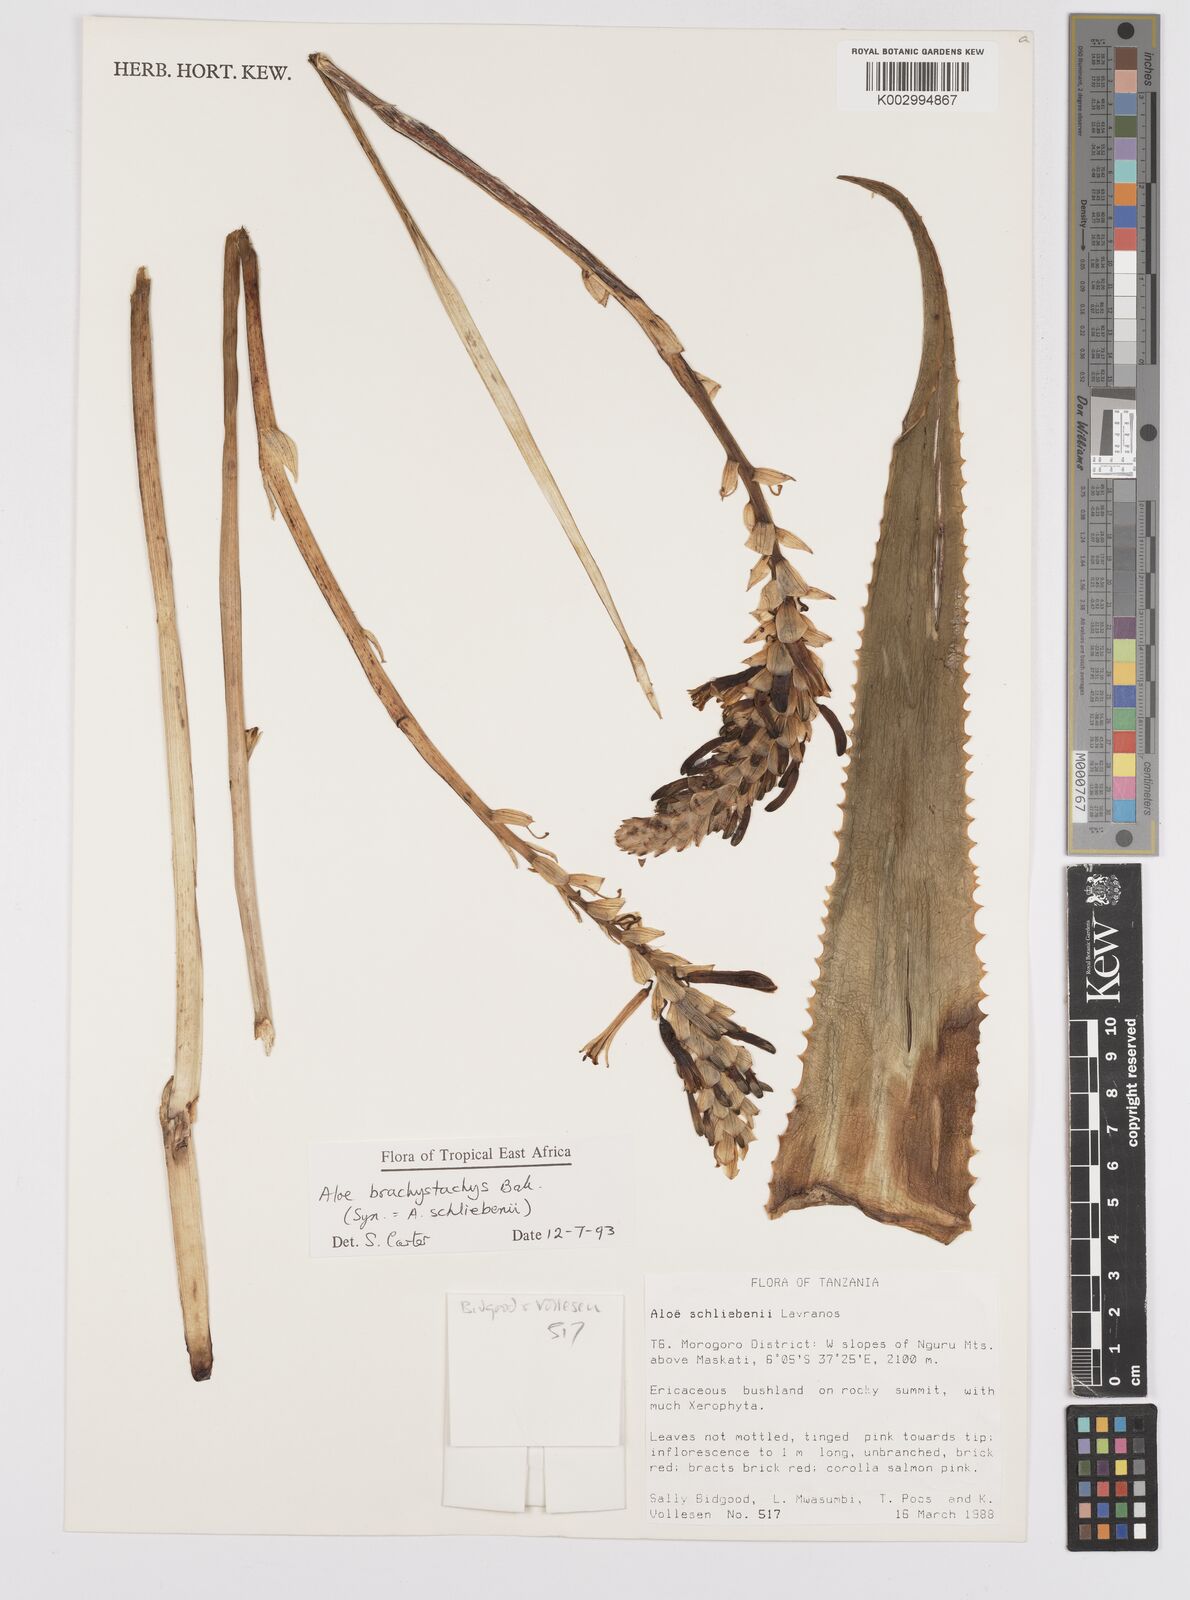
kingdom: Plantae
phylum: Tracheophyta
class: Liliopsida
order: Asparagales
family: Asphodelaceae
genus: Aloe
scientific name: Aloe brachystachys
